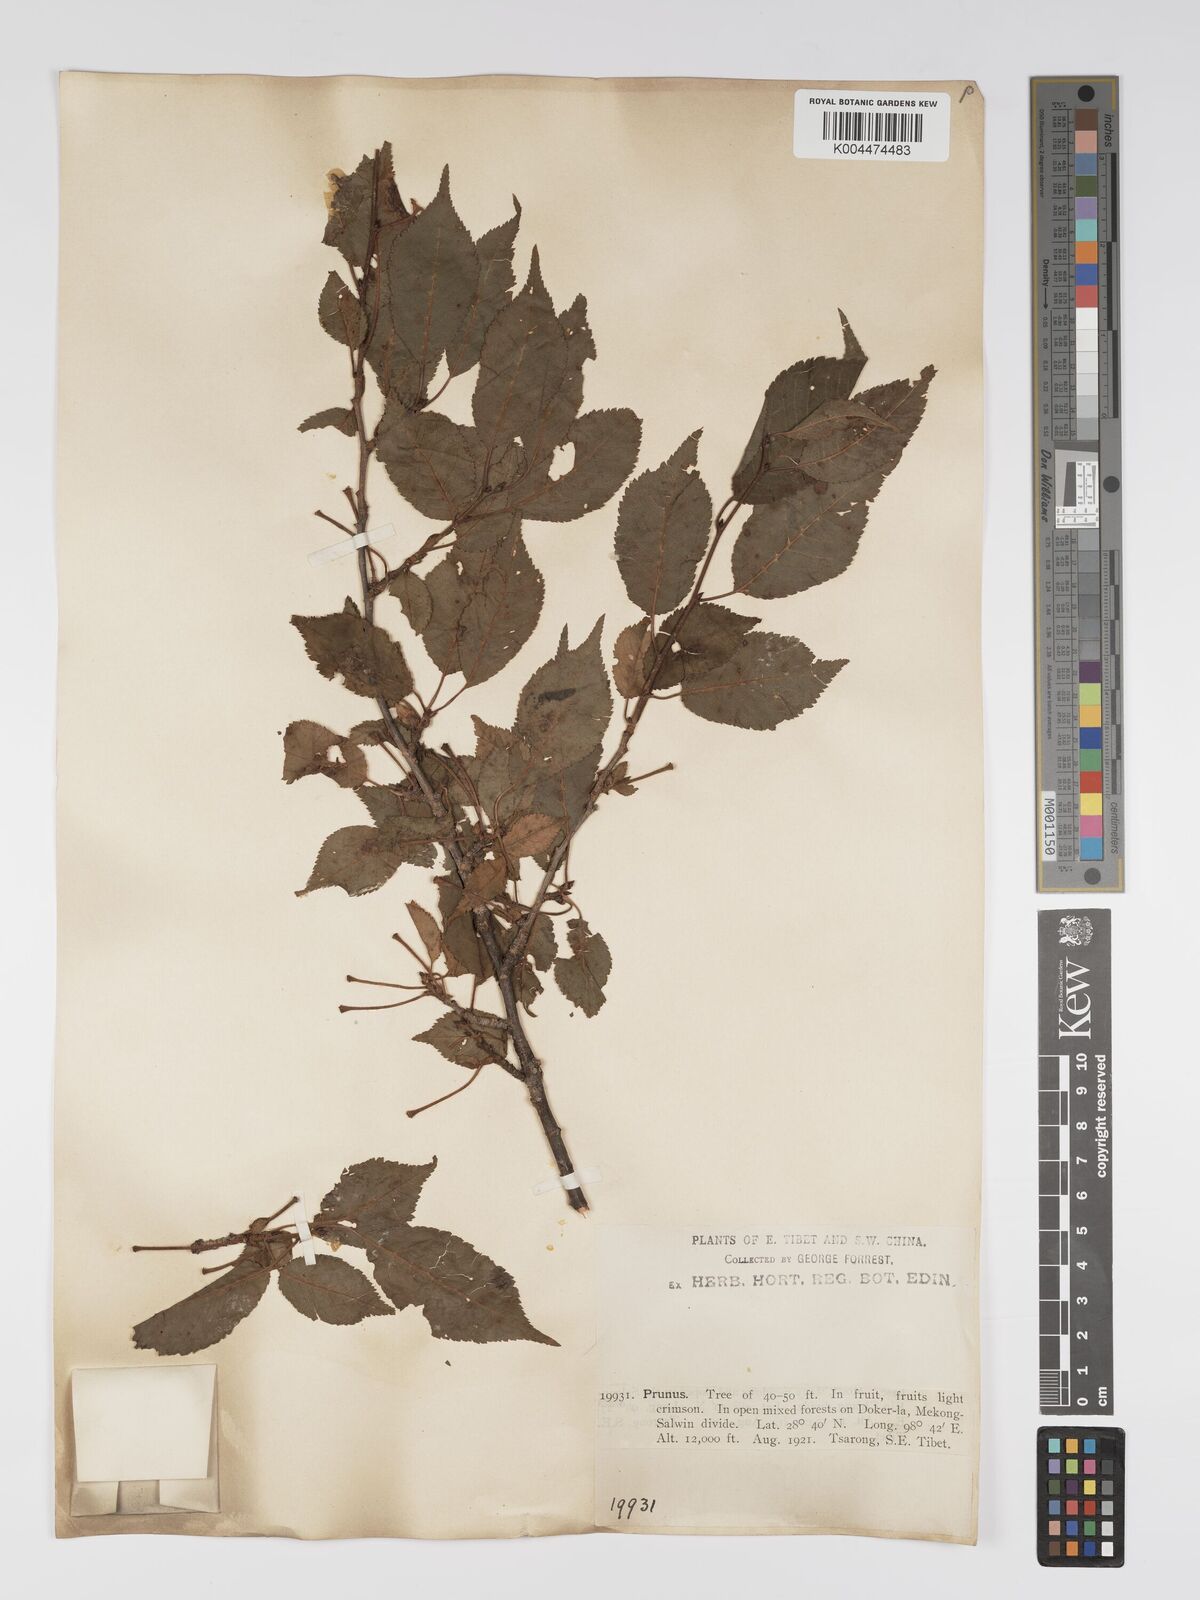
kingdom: Plantae
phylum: Tracheophyta
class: Magnoliopsida
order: Rosales
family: Rosaceae
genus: Prunus
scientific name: Prunus
